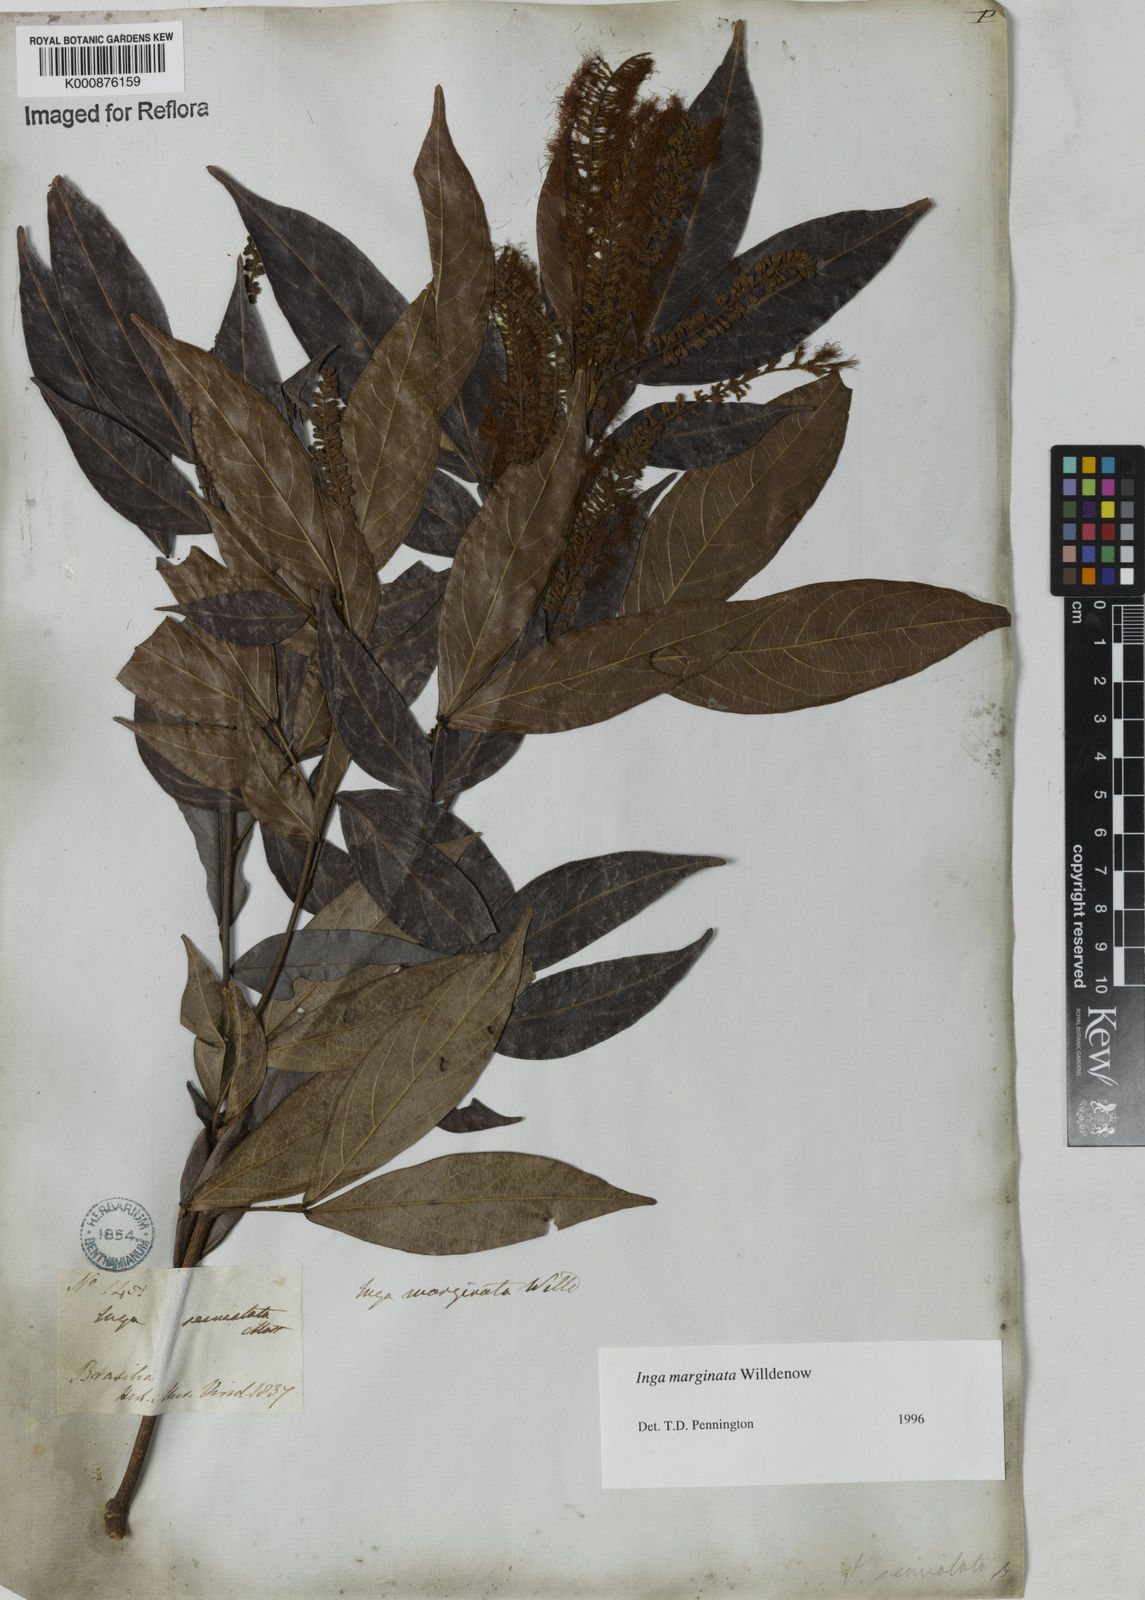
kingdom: Plantae
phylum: Tracheophyta
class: Magnoliopsida
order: Fabales
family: Fabaceae
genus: Inga
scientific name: Inga marginata
